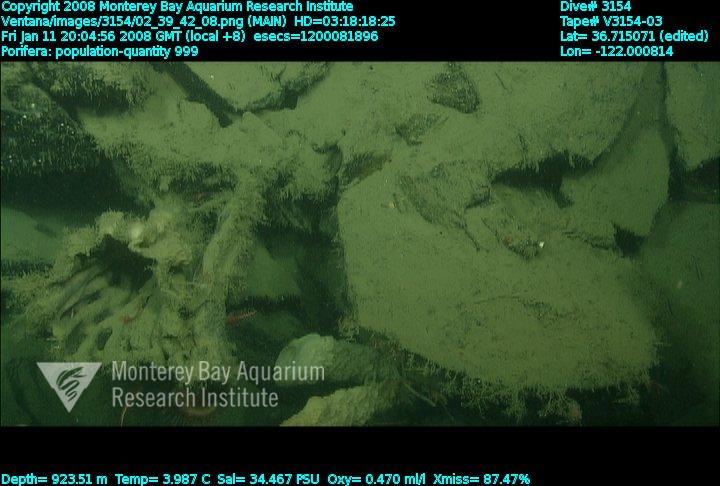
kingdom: Animalia
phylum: Porifera
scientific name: Porifera
